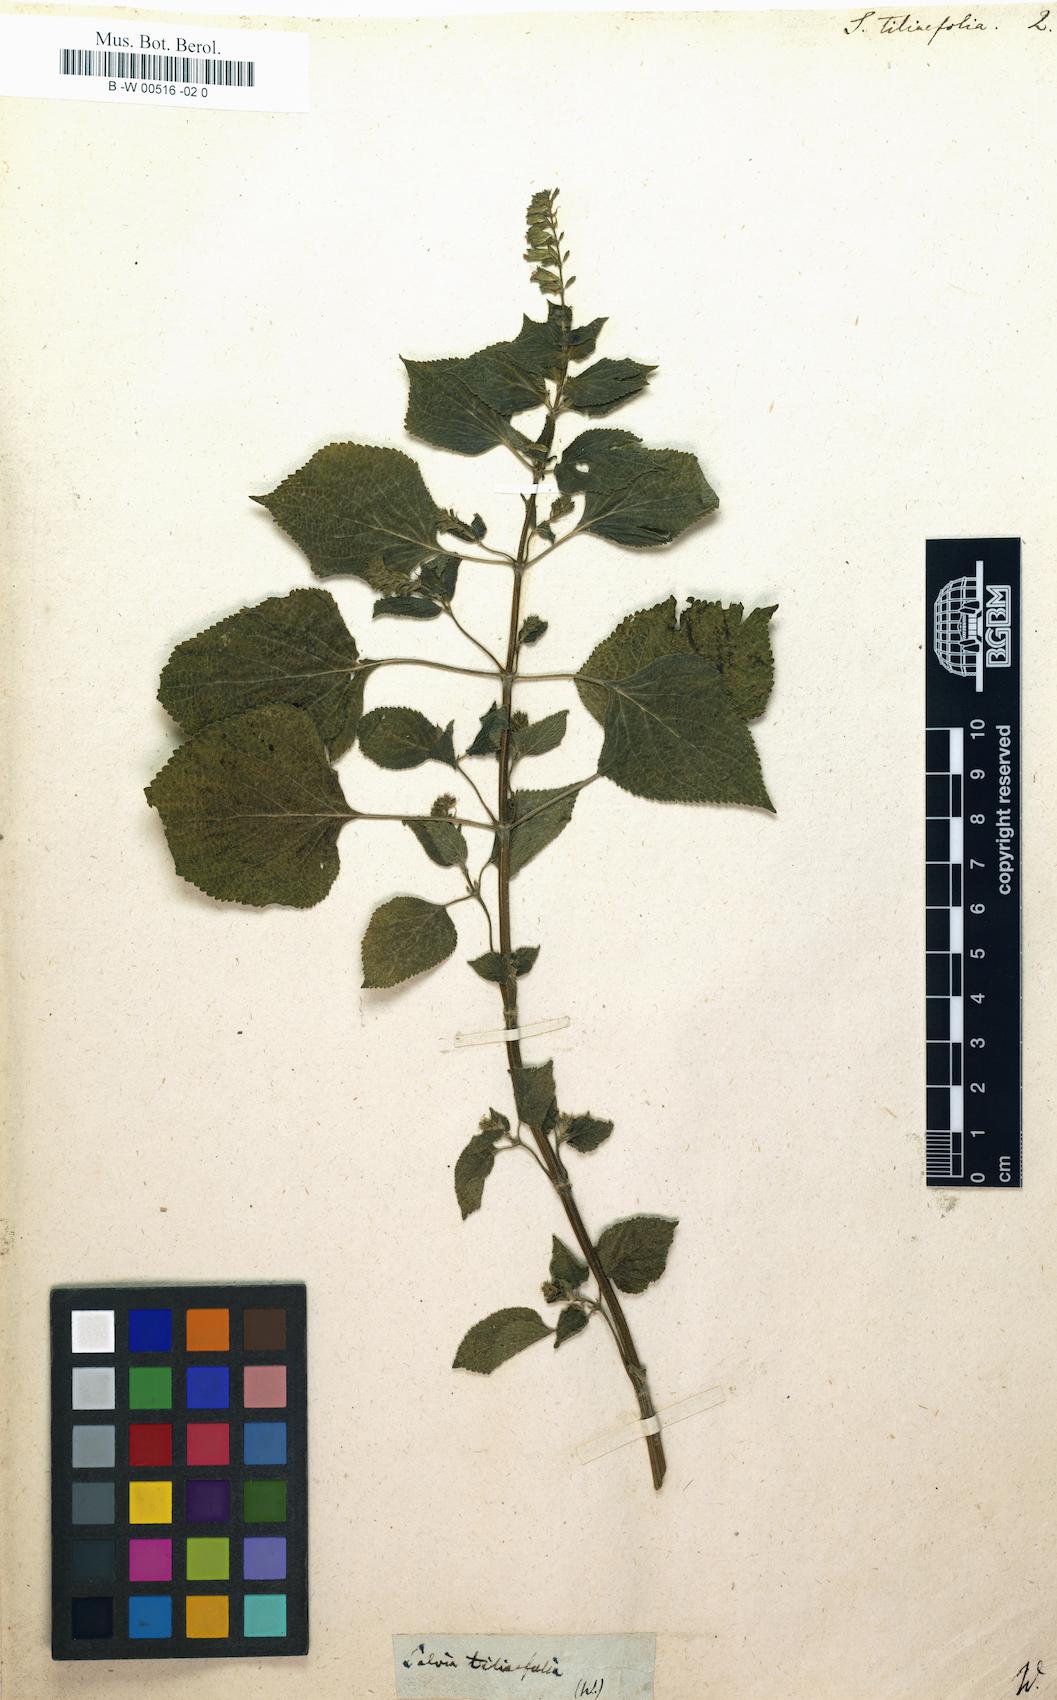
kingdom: Plantae
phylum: Tracheophyta
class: Magnoliopsida
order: Lamiales
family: Lamiaceae
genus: Salvia
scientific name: Salvia tiliifolia
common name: Lindenleaf sage
